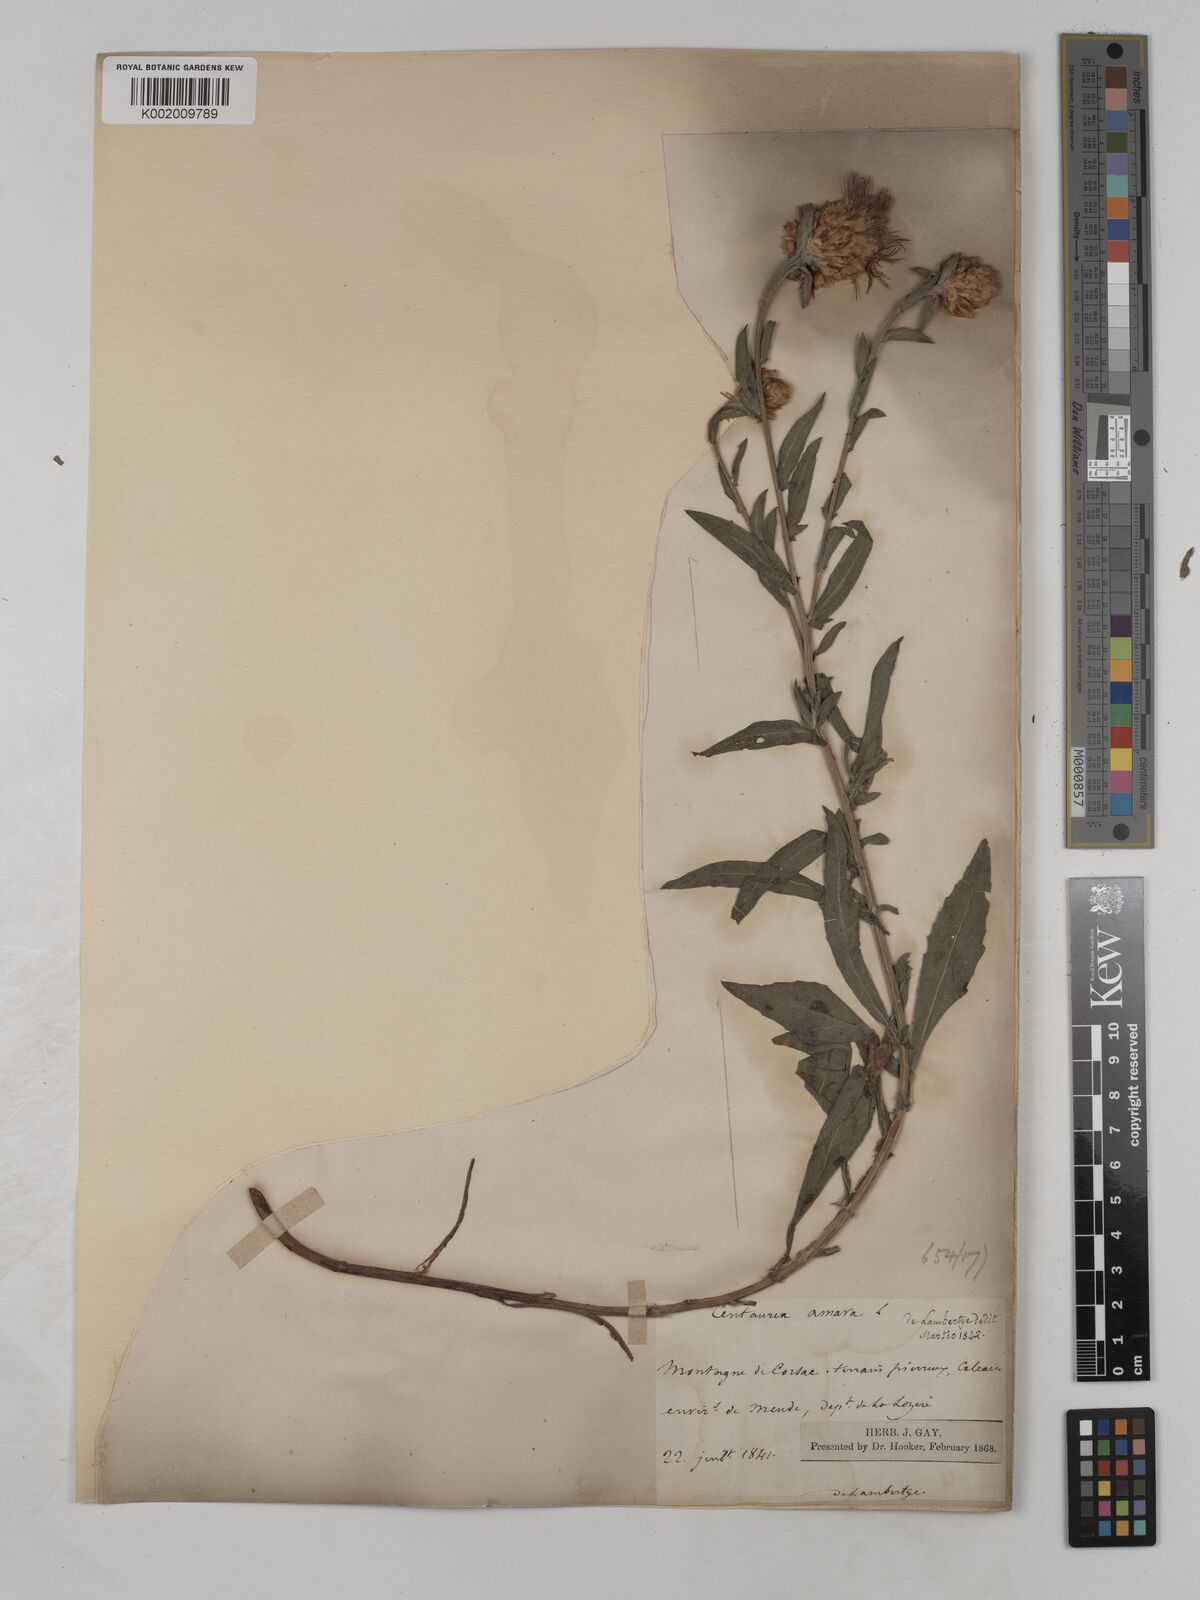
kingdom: Plantae
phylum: Tracheophyta
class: Magnoliopsida
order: Asterales
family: Asteraceae
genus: Centaurea
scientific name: Centaurea timbalii
